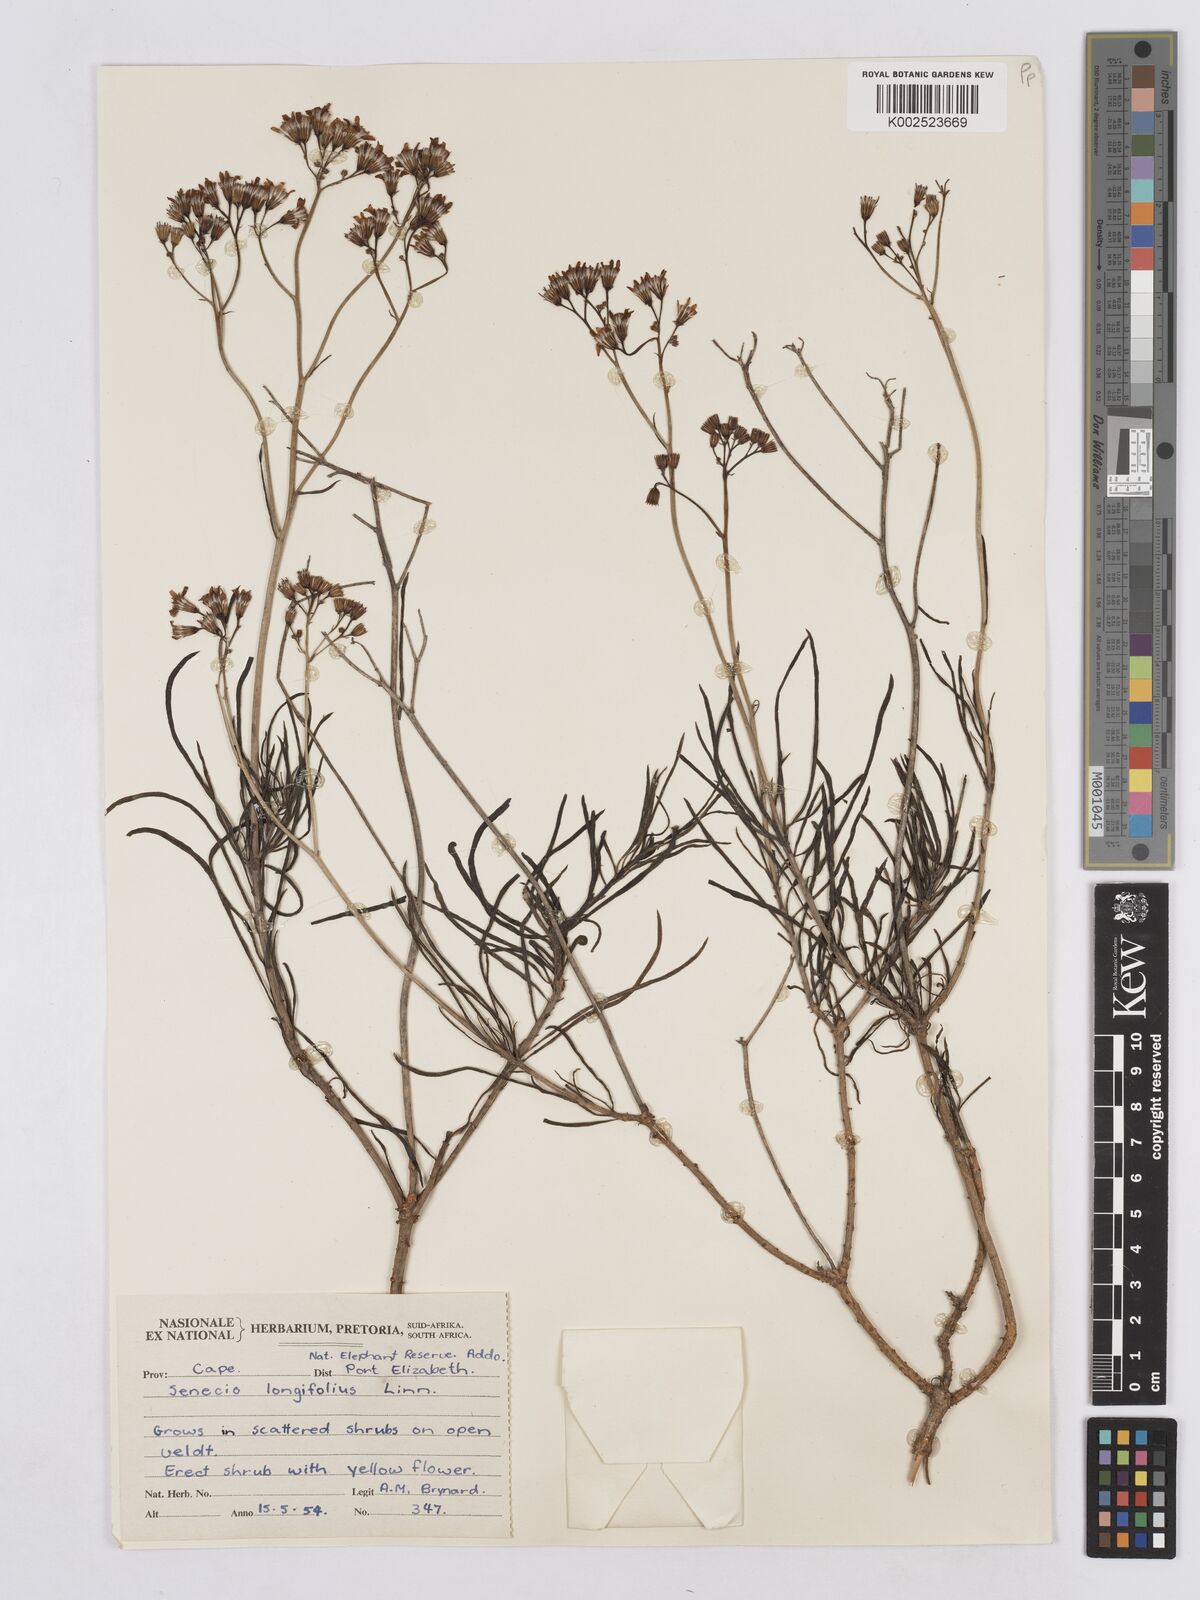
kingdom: Plantae
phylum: Tracheophyta
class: Magnoliopsida
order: Asterales
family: Asteraceae
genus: Senecio
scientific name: Senecio linifolius
